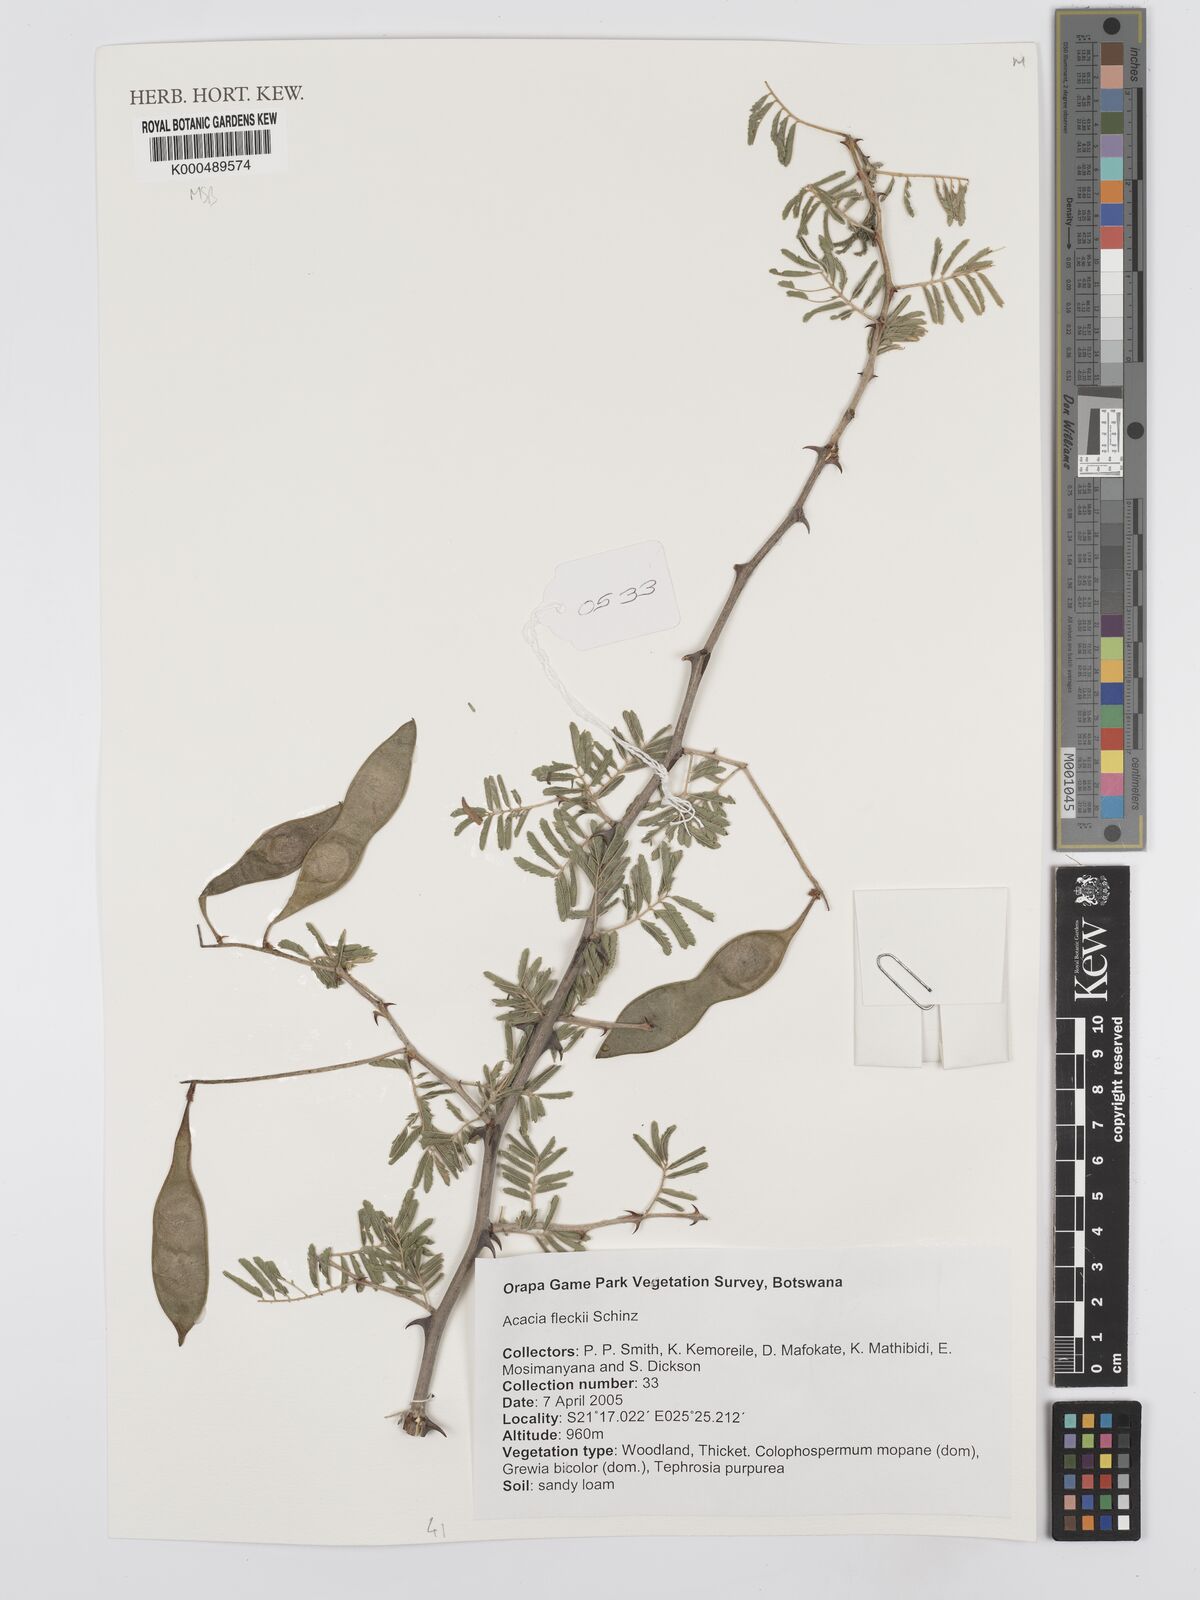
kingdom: Plantae
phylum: Tracheophyta
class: Magnoliopsida
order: Fabales
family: Fabaceae
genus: Senegalia
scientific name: Senegalia fleckii
